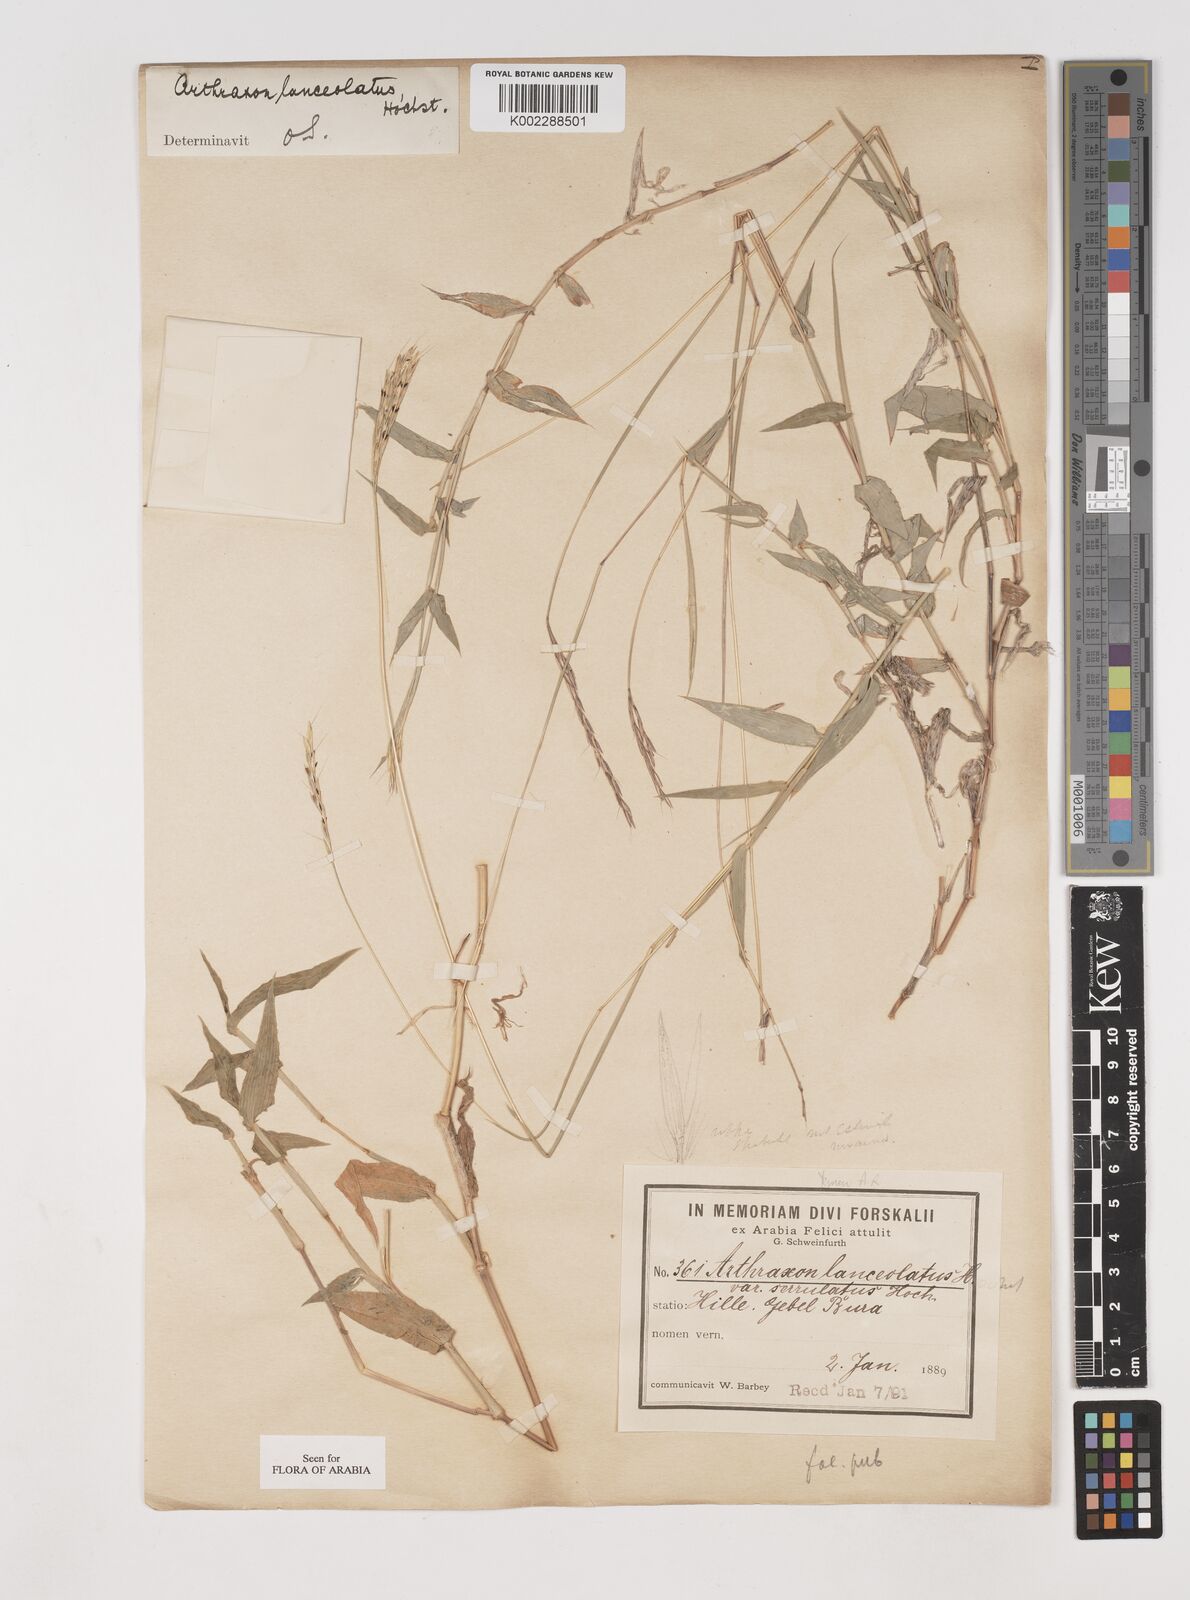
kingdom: Plantae
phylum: Tracheophyta
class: Liliopsida
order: Poales
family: Poaceae
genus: Arthraxon
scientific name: Arthraxon prionodes
